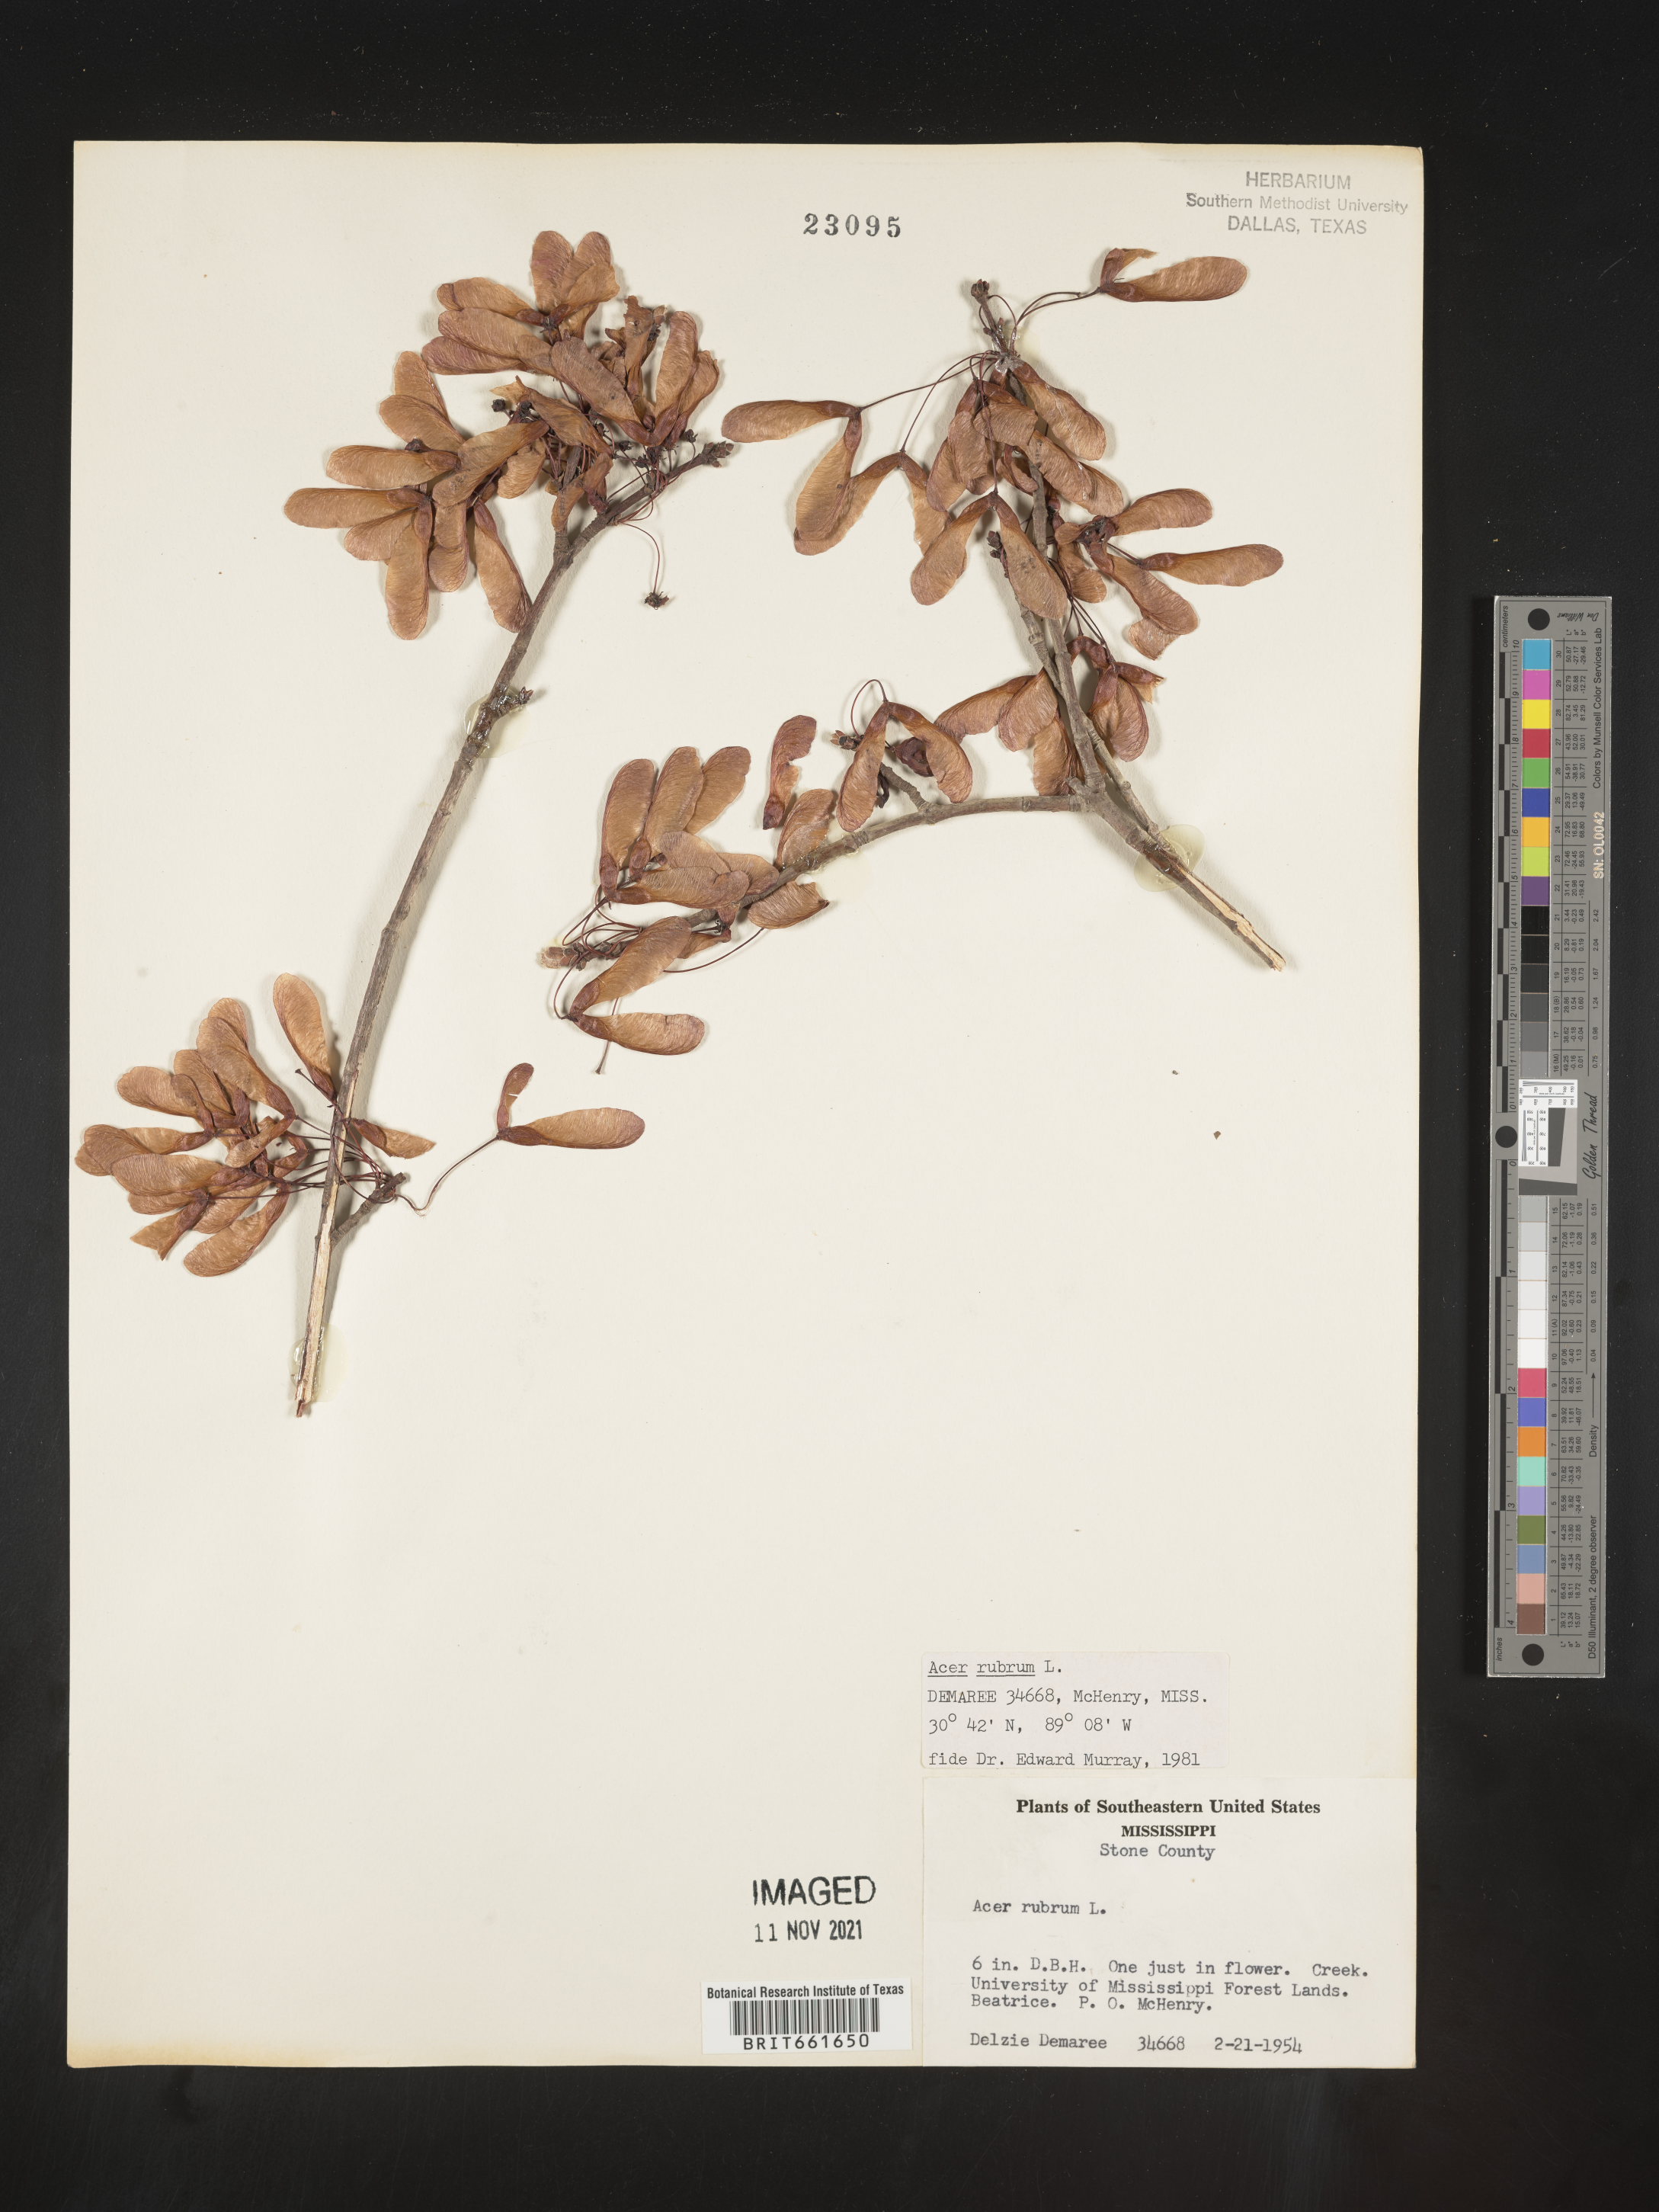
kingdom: Plantae
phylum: Tracheophyta
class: Magnoliopsida
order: Sapindales
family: Sapindaceae
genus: Acer
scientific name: Acer rubrum
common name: Red maple
